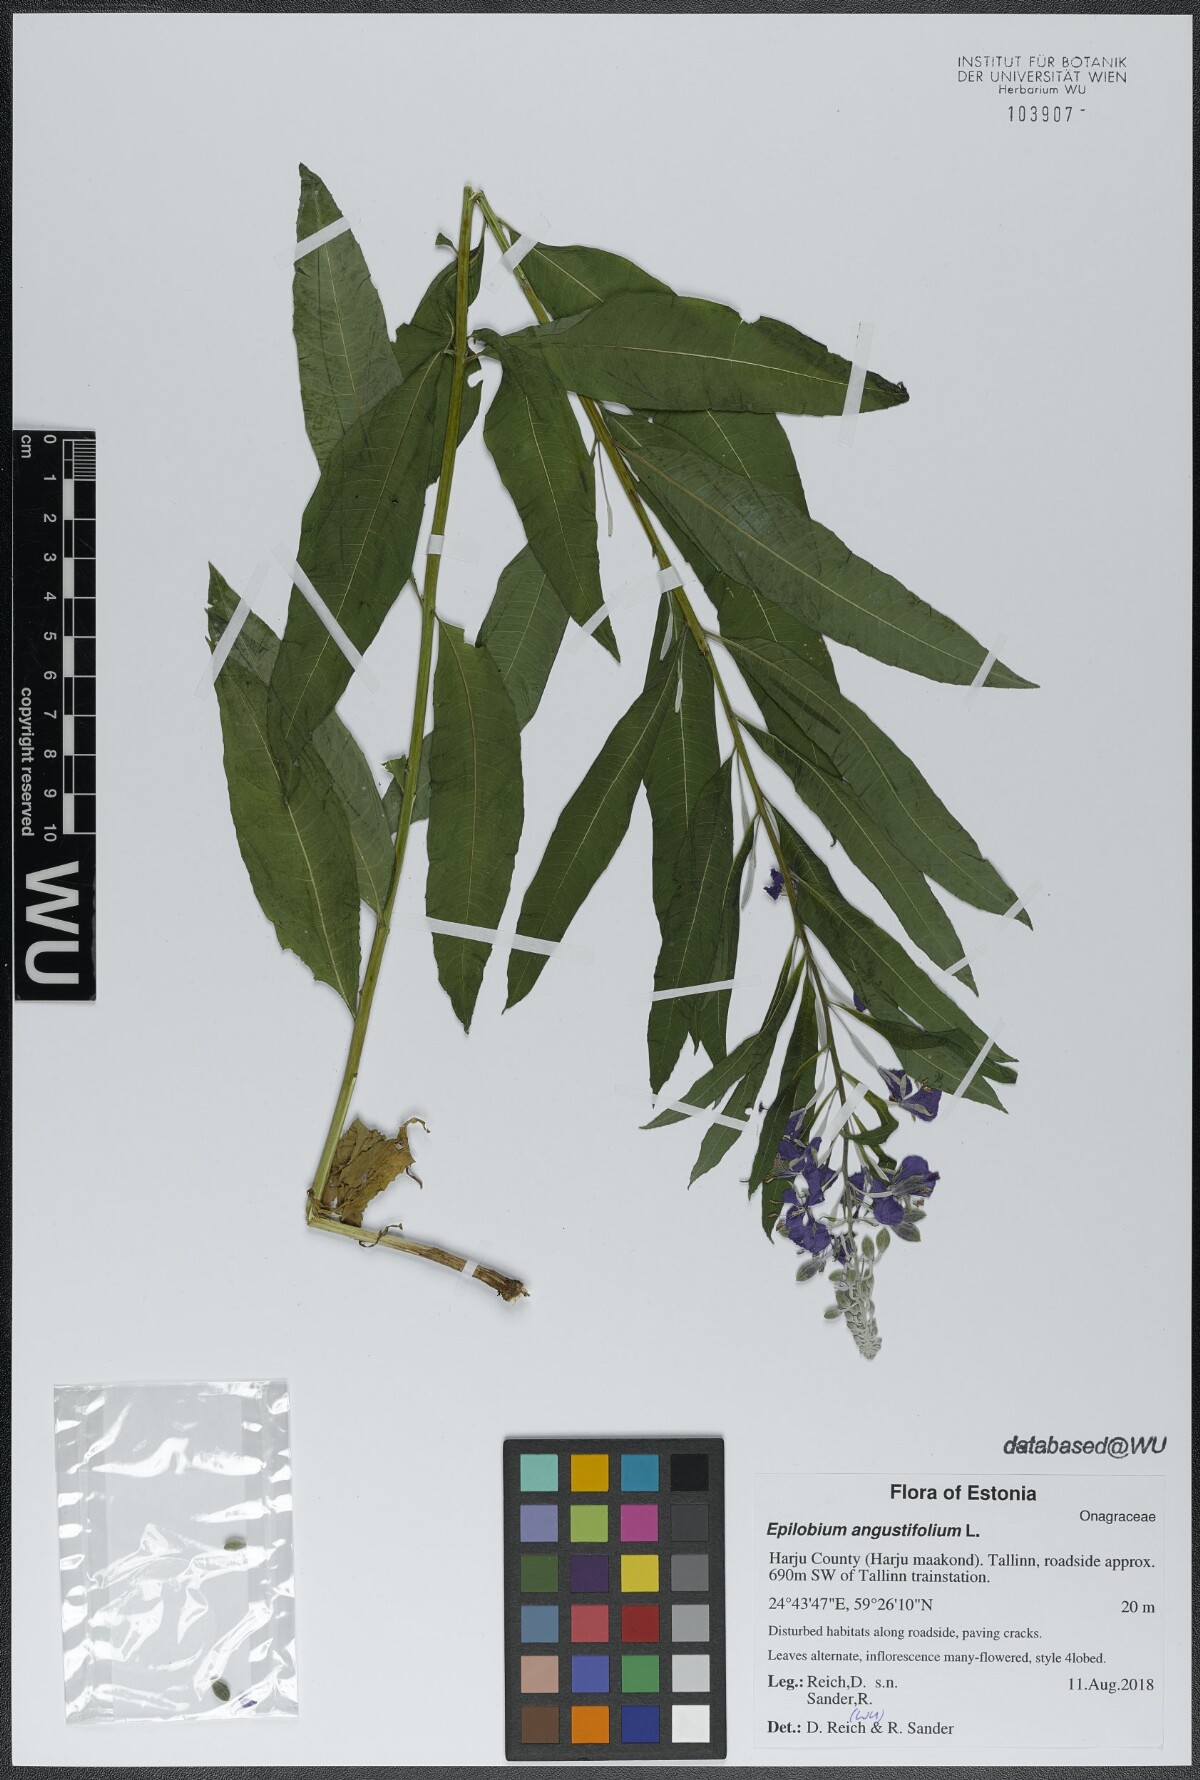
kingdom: Plantae
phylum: Tracheophyta
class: Magnoliopsida
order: Myrtales
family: Onagraceae
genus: Chamaenerion
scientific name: Chamaenerion angustifolium
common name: Fireweed
